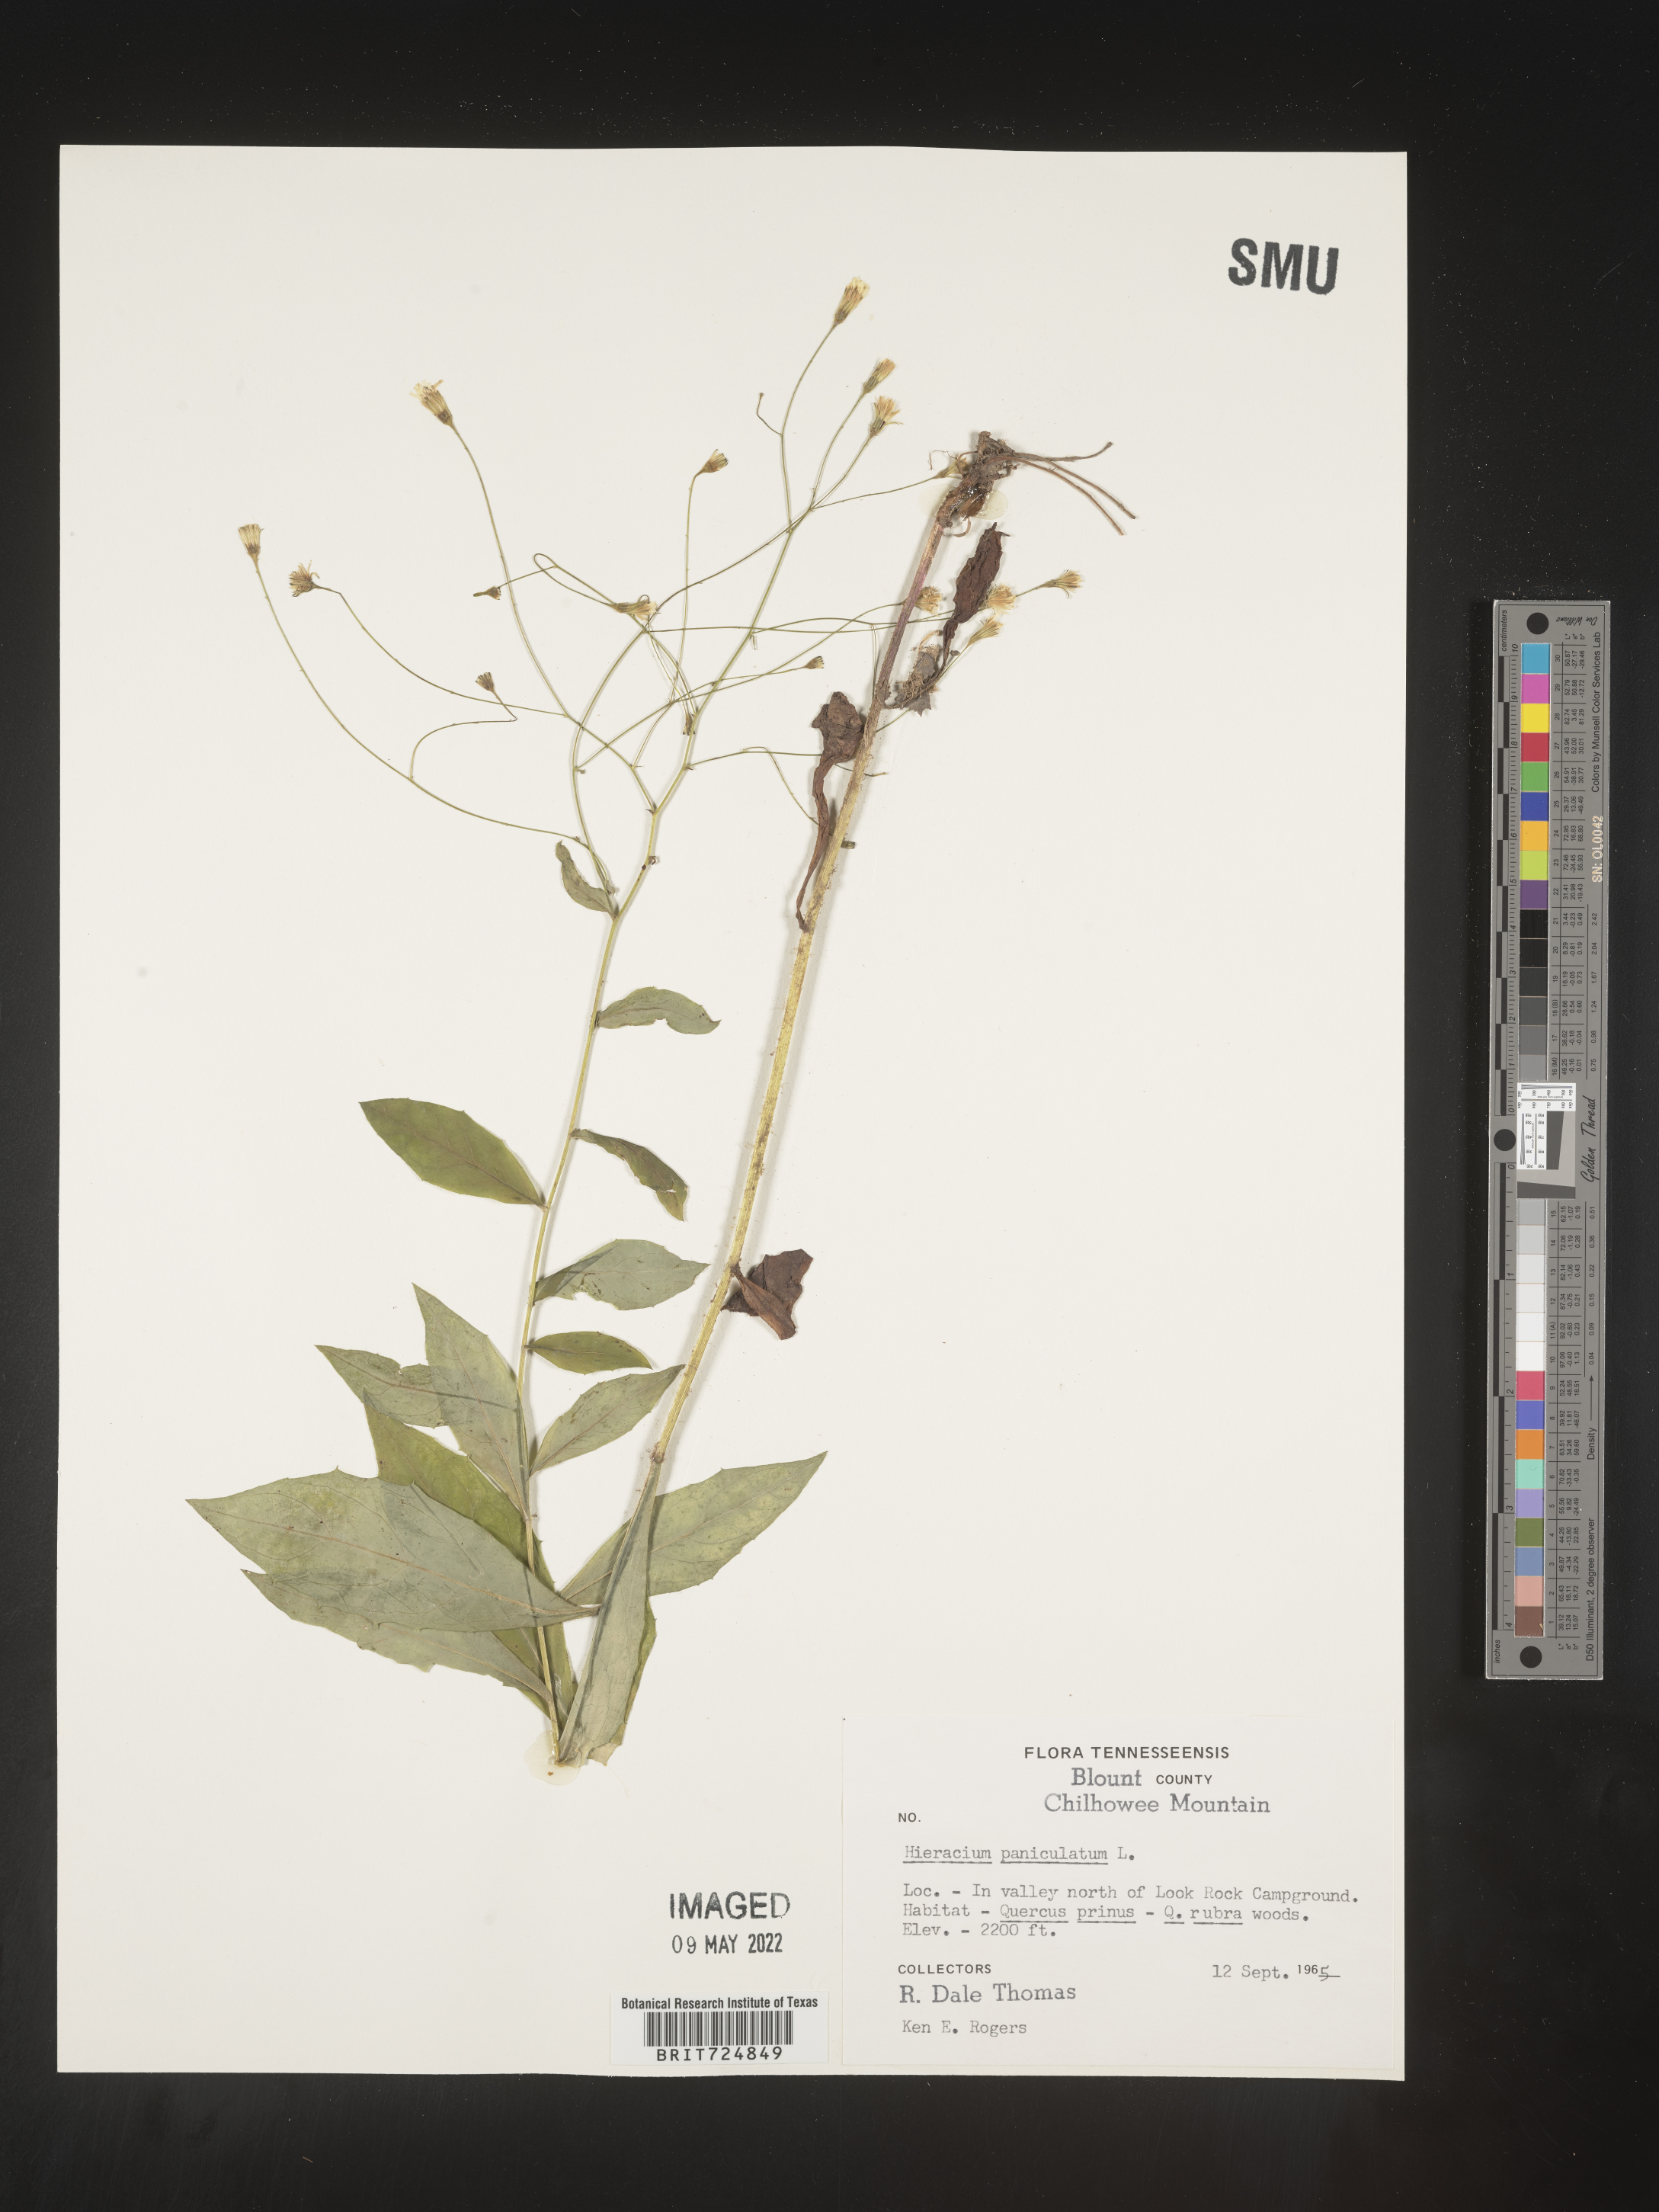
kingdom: Plantae
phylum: Tracheophyta
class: Magnoliopsida
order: Asterales
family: Asteraceae
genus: Hieracium
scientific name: Hieracium paniculatum
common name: Allegheny hawkweed
